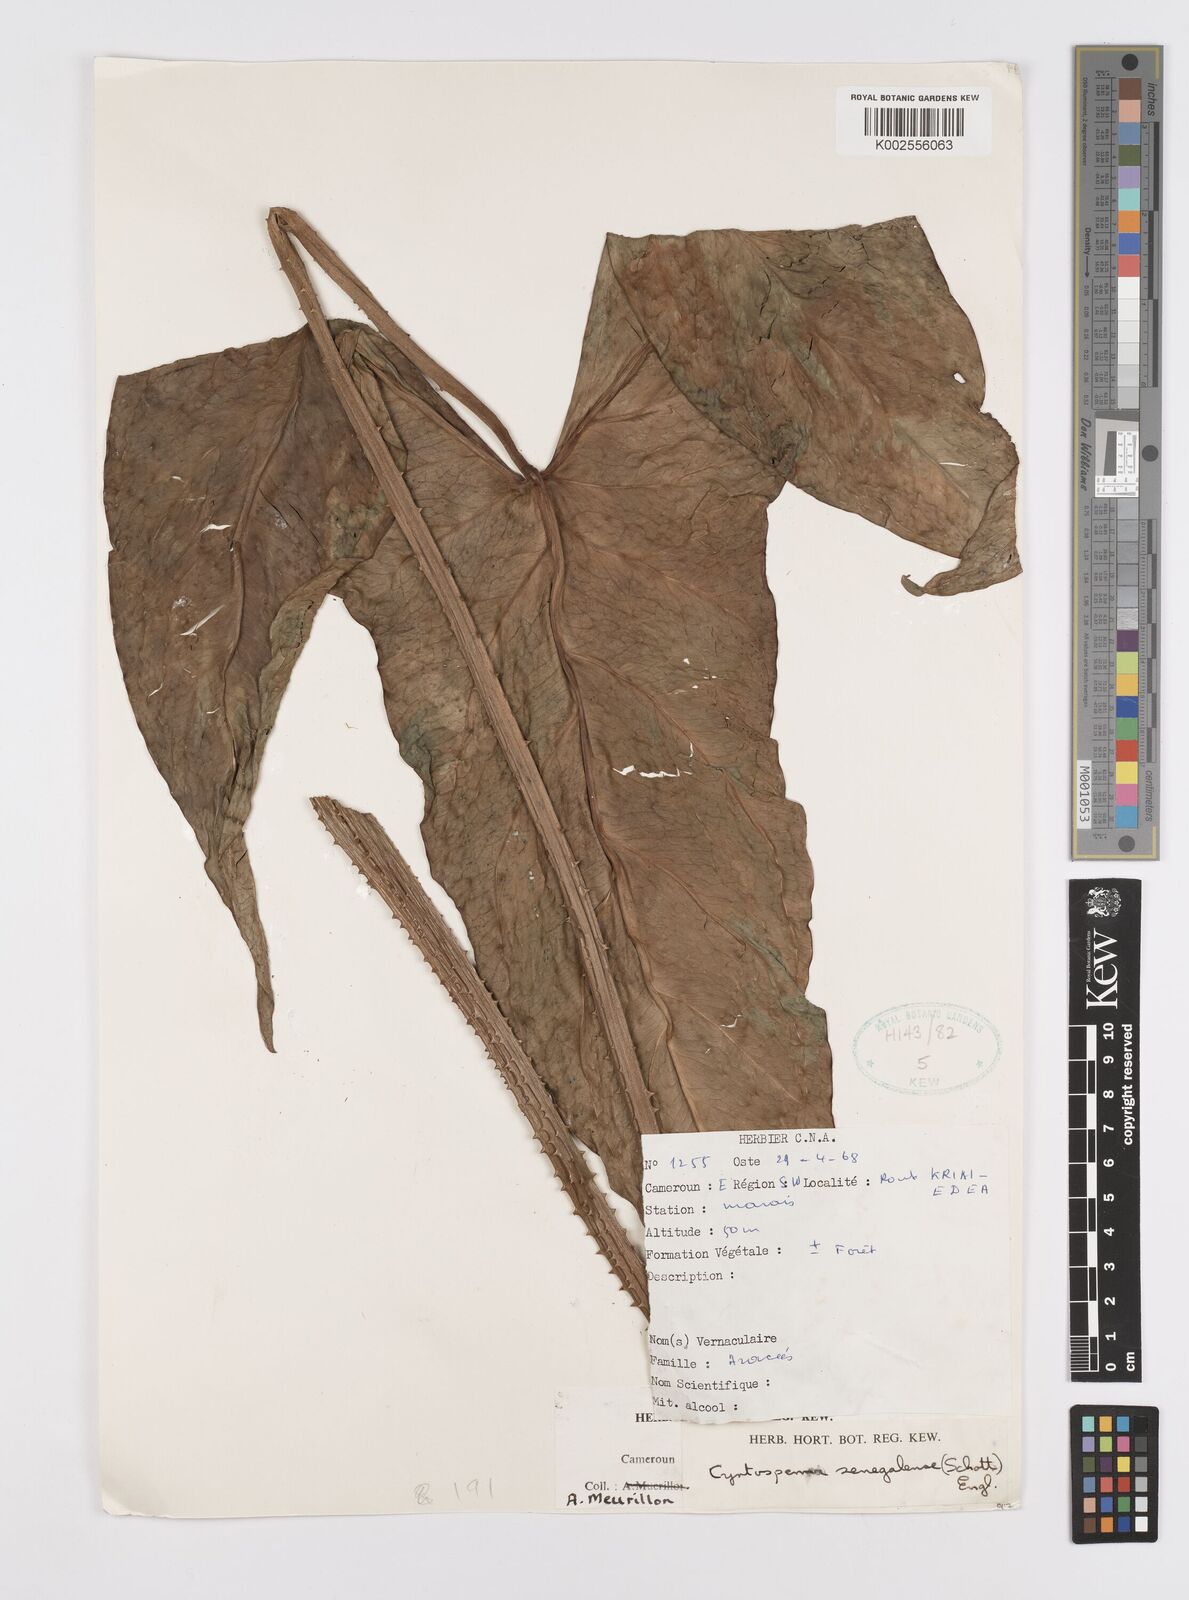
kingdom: Plantae
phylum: Tracheophyta
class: Liliopsida
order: Alismatales
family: Araceae
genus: Lasimorpha
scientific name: Lasimorpha senegalensis
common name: Swamp arum
